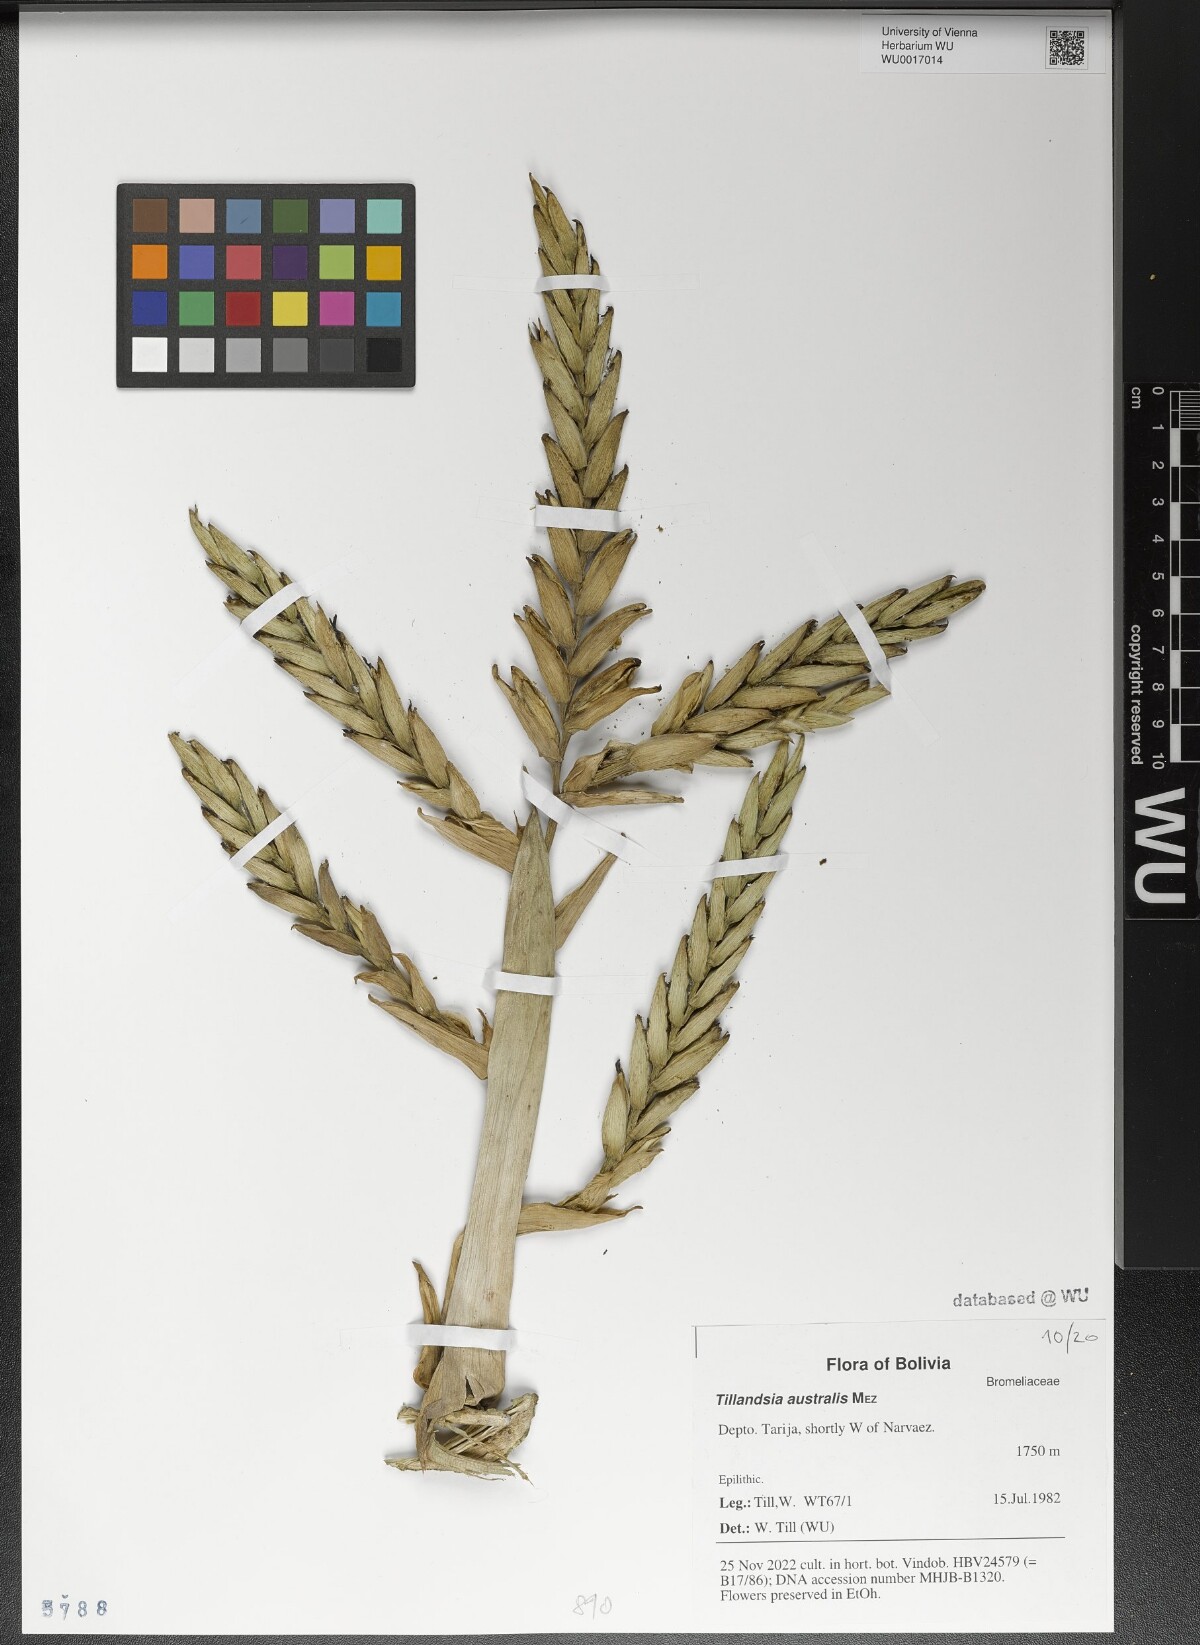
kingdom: Plantae
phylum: Tracheophyta
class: Liliopsida
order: Poales
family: Bromeliaceae
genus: Tillandsia
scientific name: Tillandsia australis
